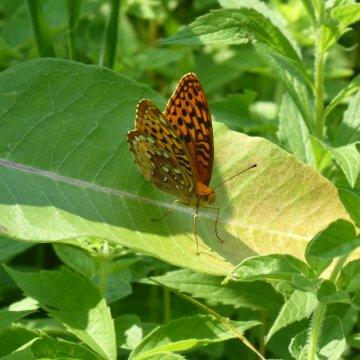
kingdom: Animalia
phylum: Arthropoda
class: Insecta
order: Lepidoptera
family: Nymphalidae
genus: Speyeria
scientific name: Speyeria cybele
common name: Great Spangled Fritillary
